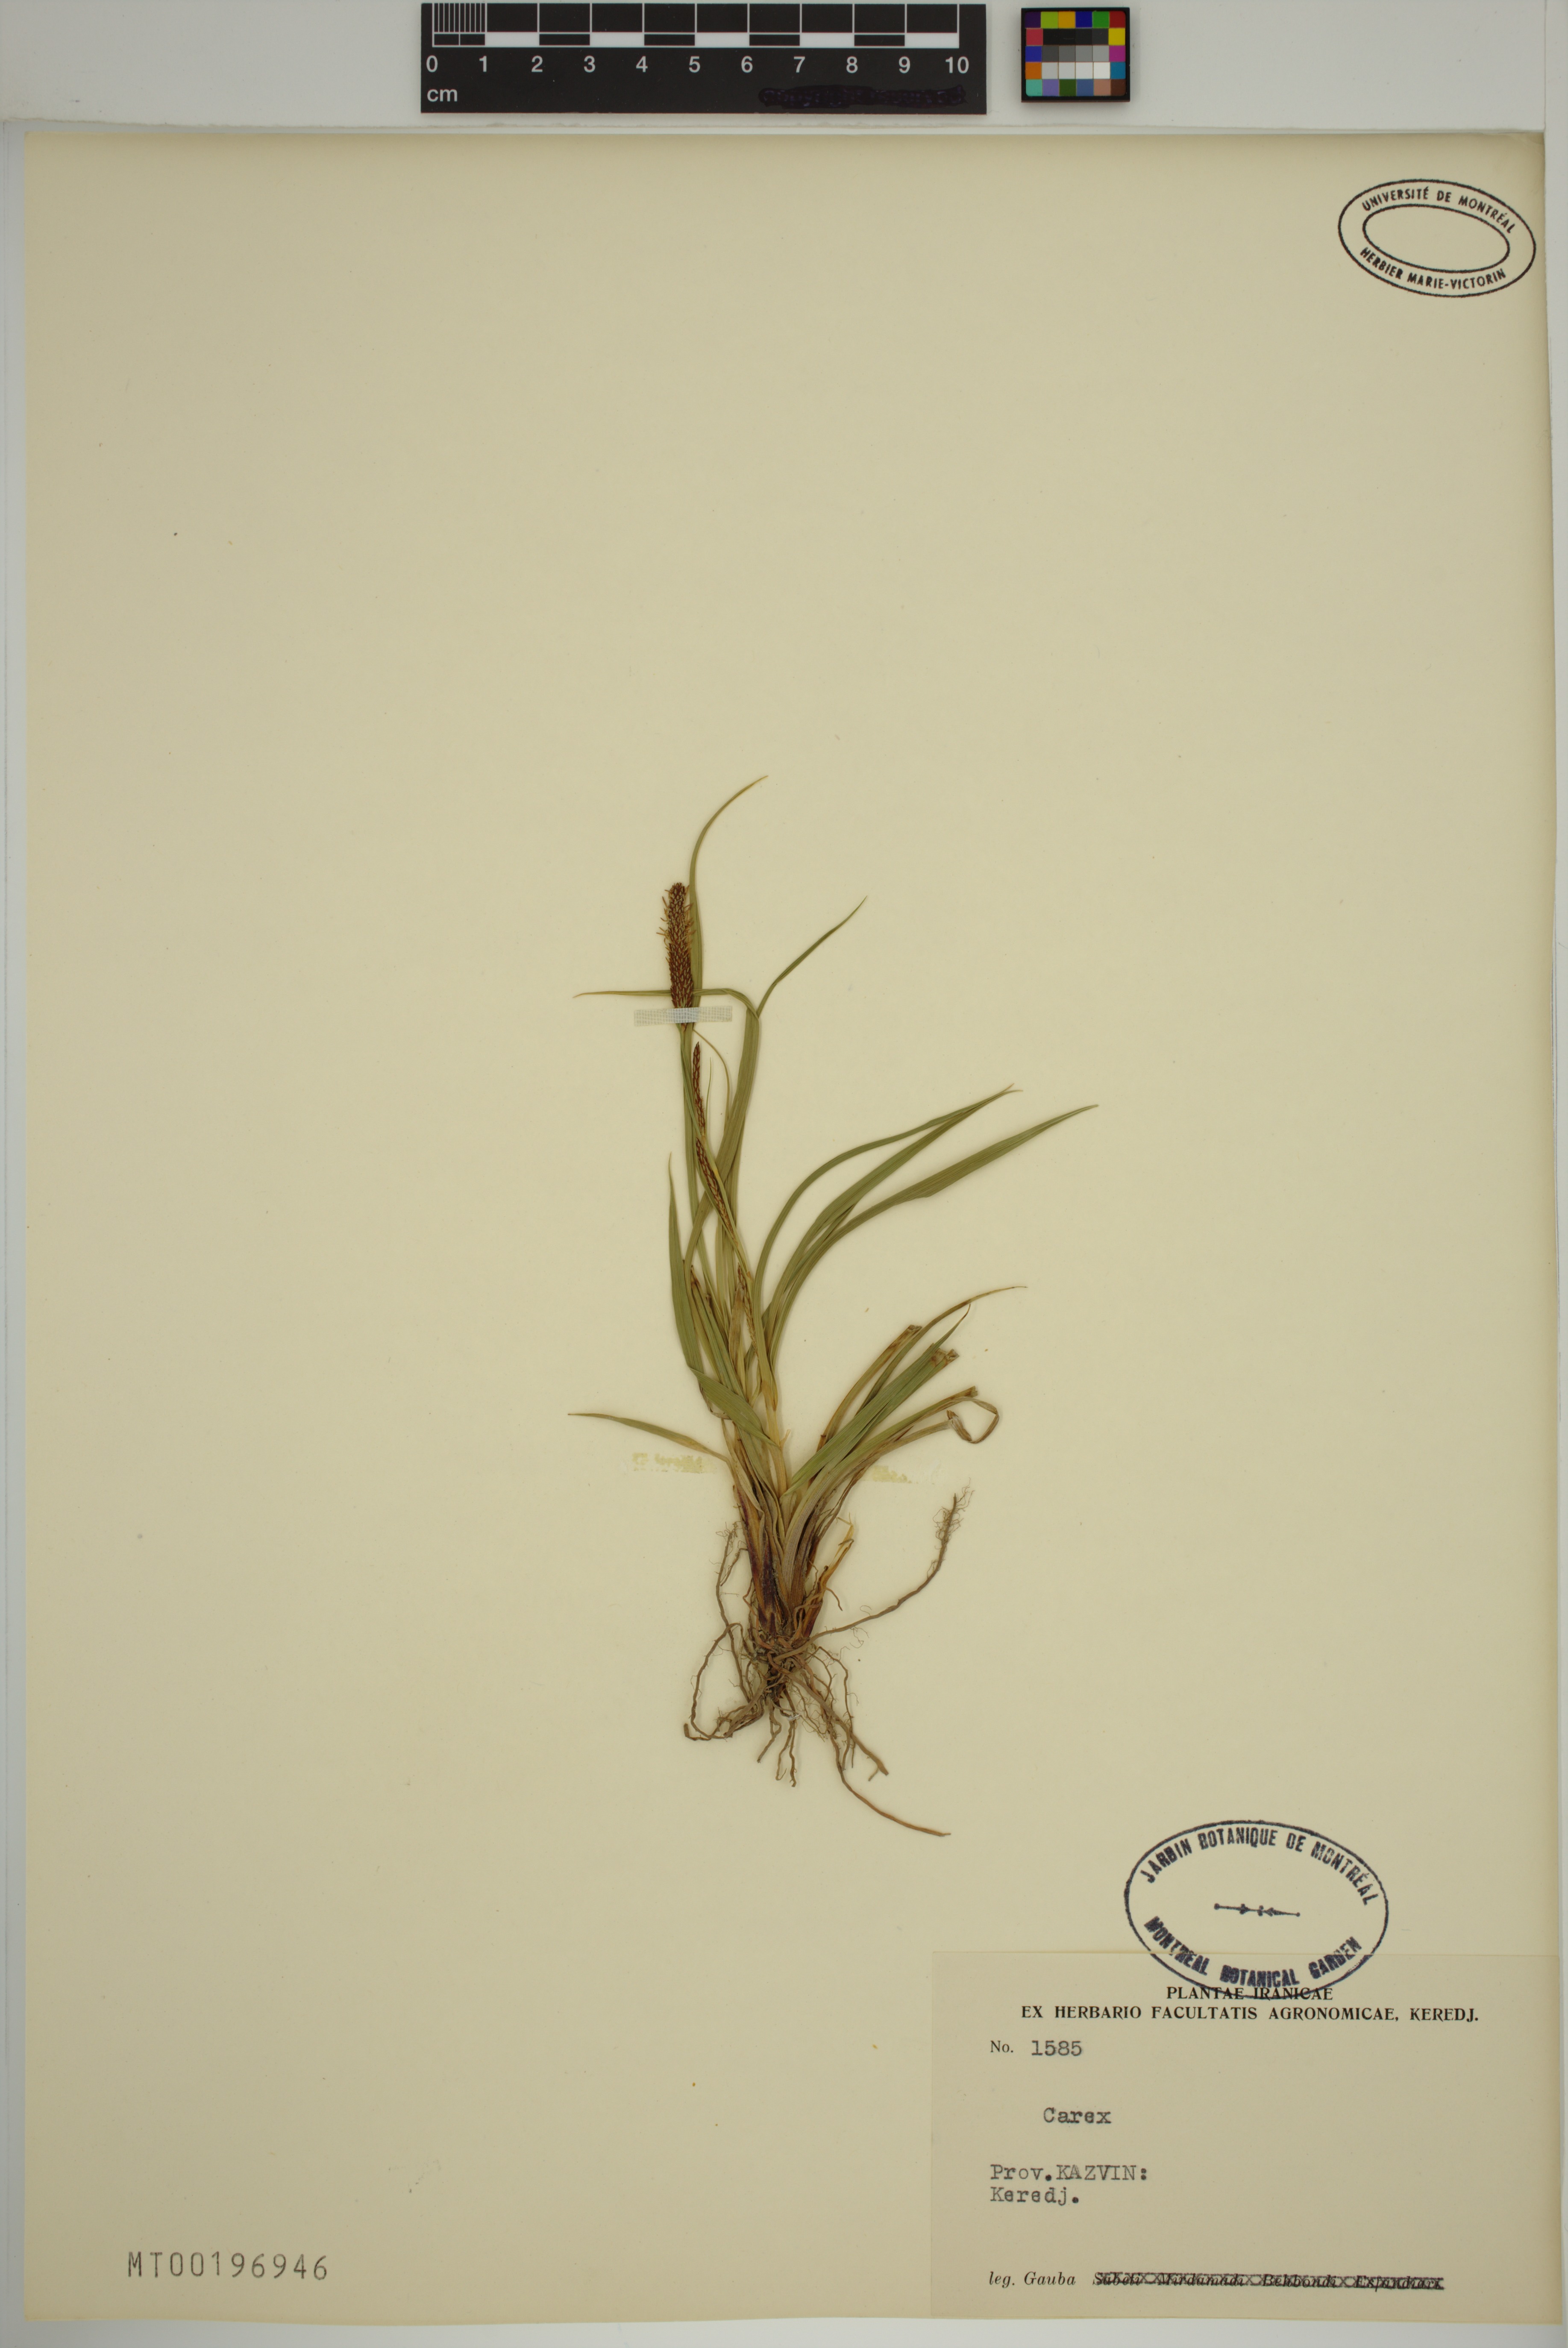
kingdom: Plantae
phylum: Tracheophyta
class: Liliopsida
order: Poales
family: Cyperaceae
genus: Carex
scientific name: Carex
